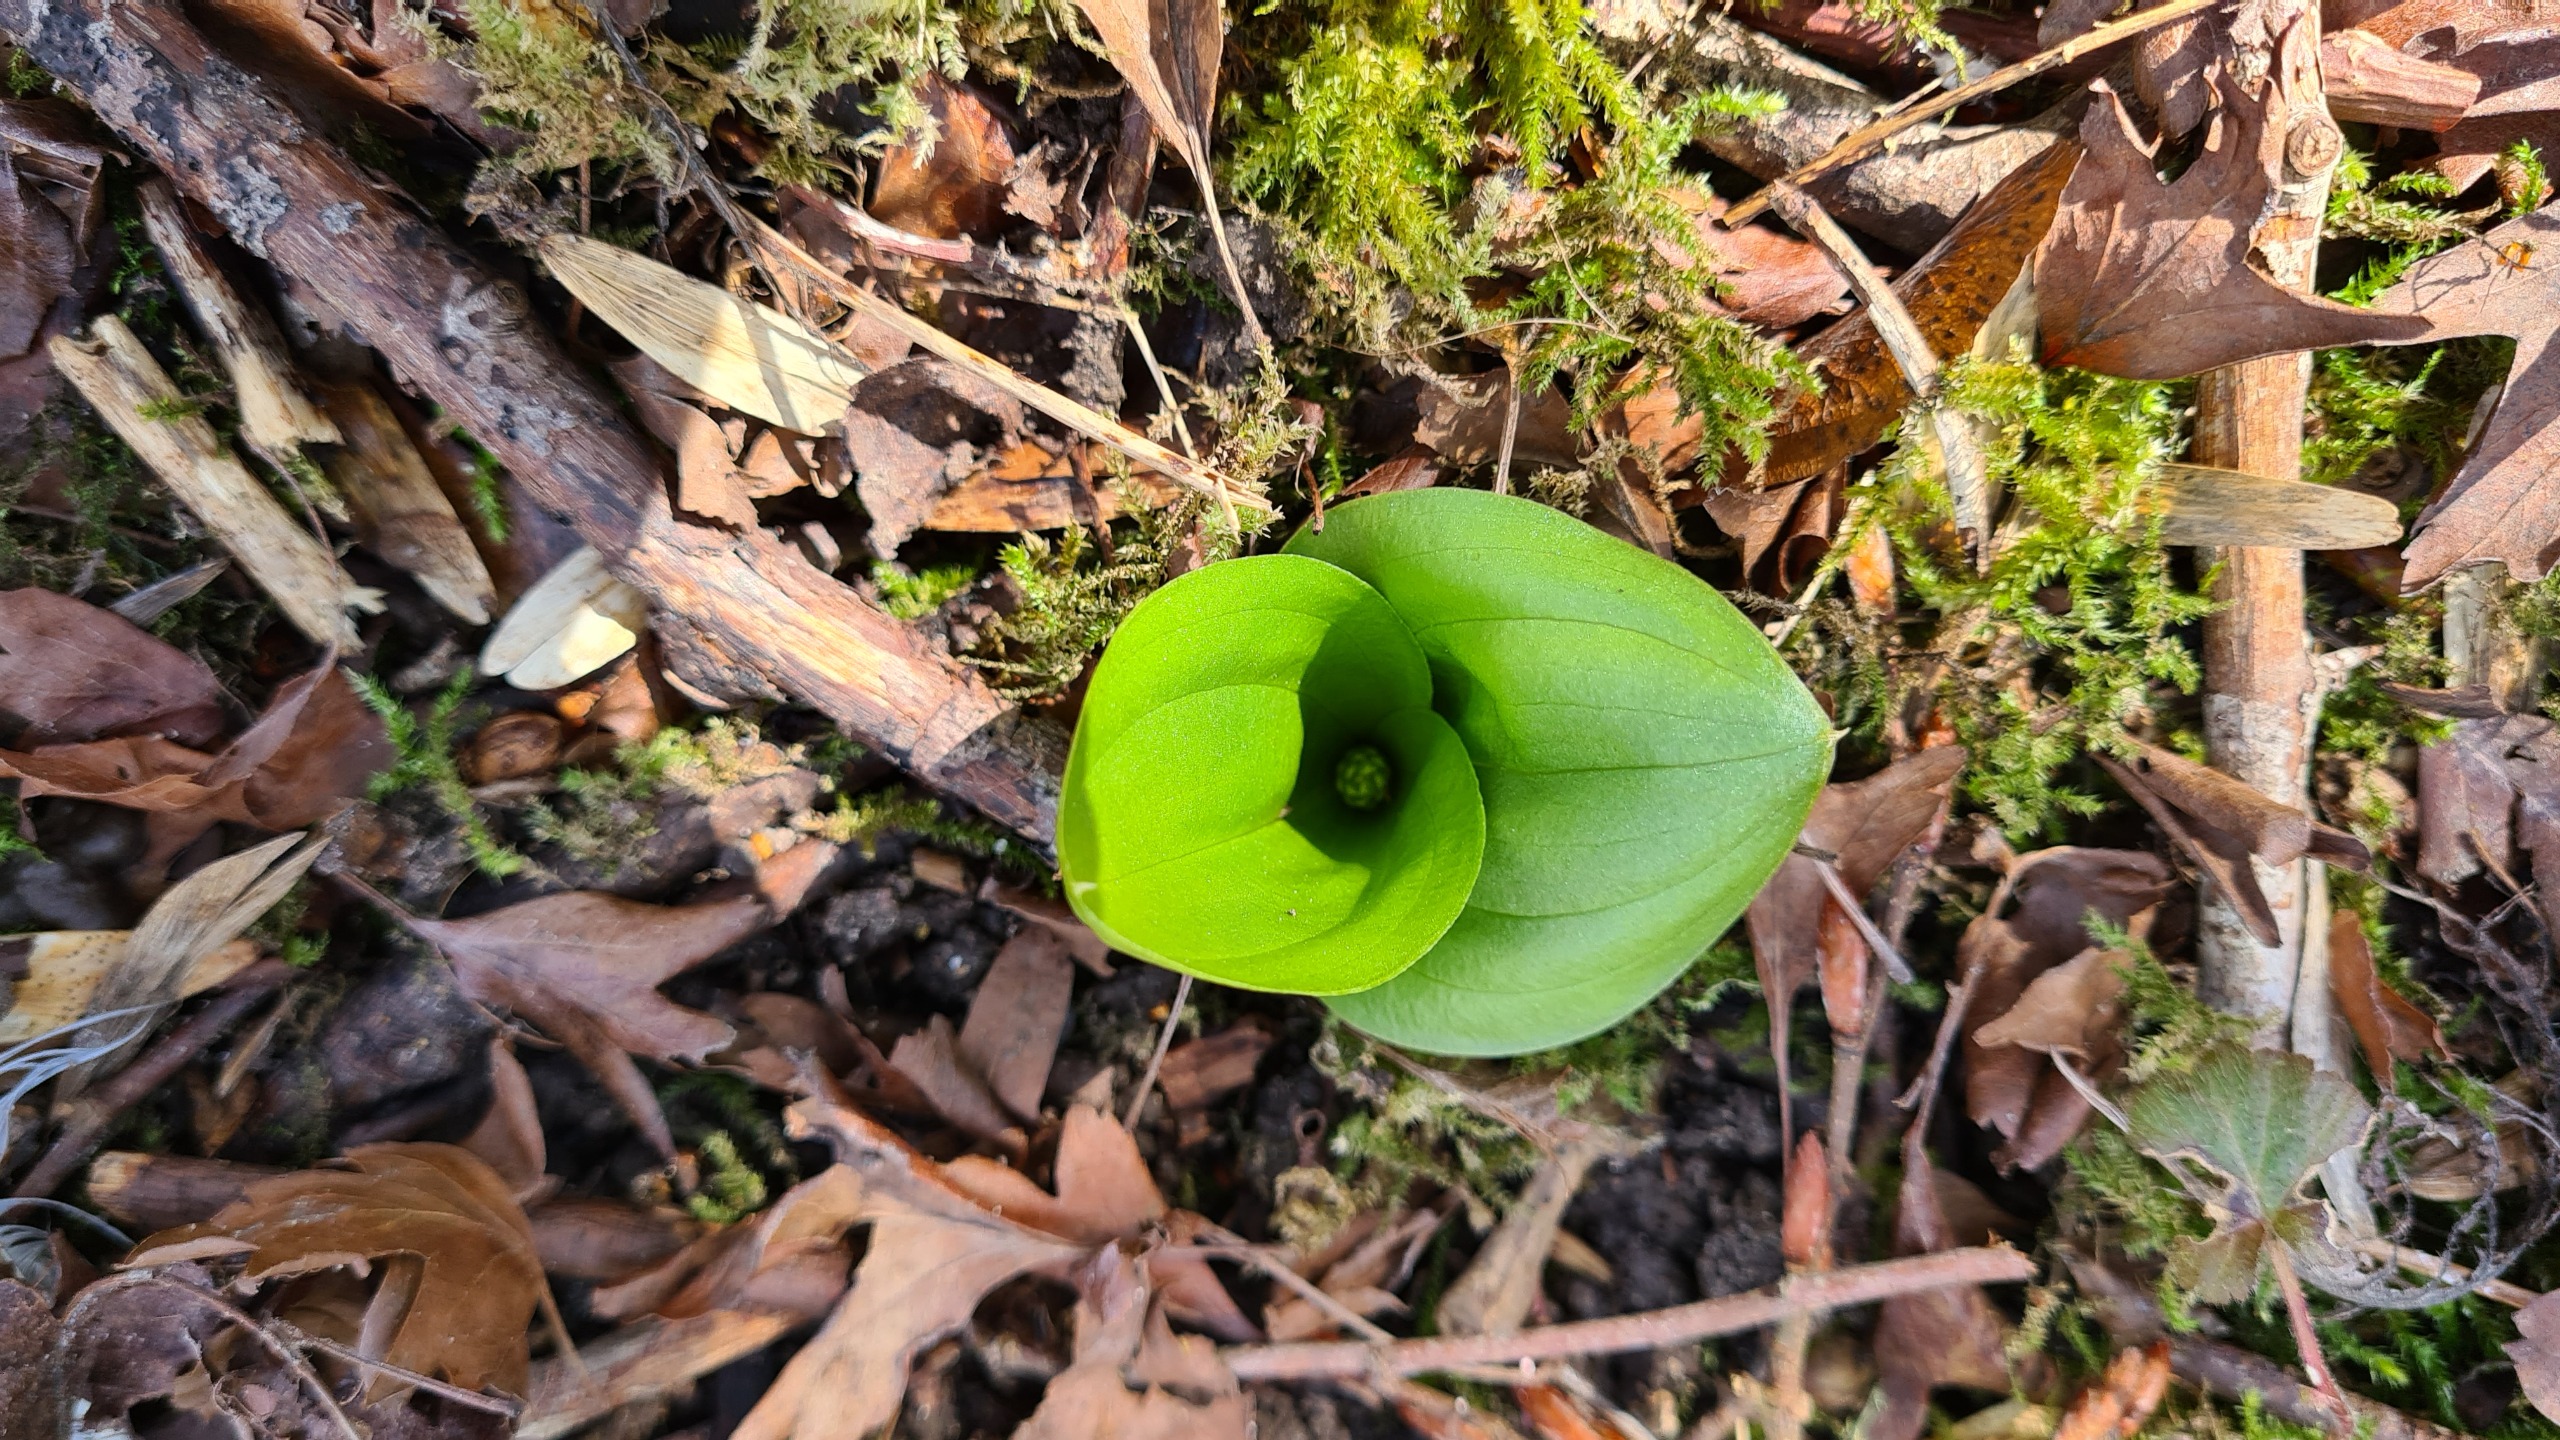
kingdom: Plantae
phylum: Tracheophyta
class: Liliopsida
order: Asparagales
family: Orchidaceae
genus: Neottia
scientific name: Neottia ovata
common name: Ægbladet fliglæbe
